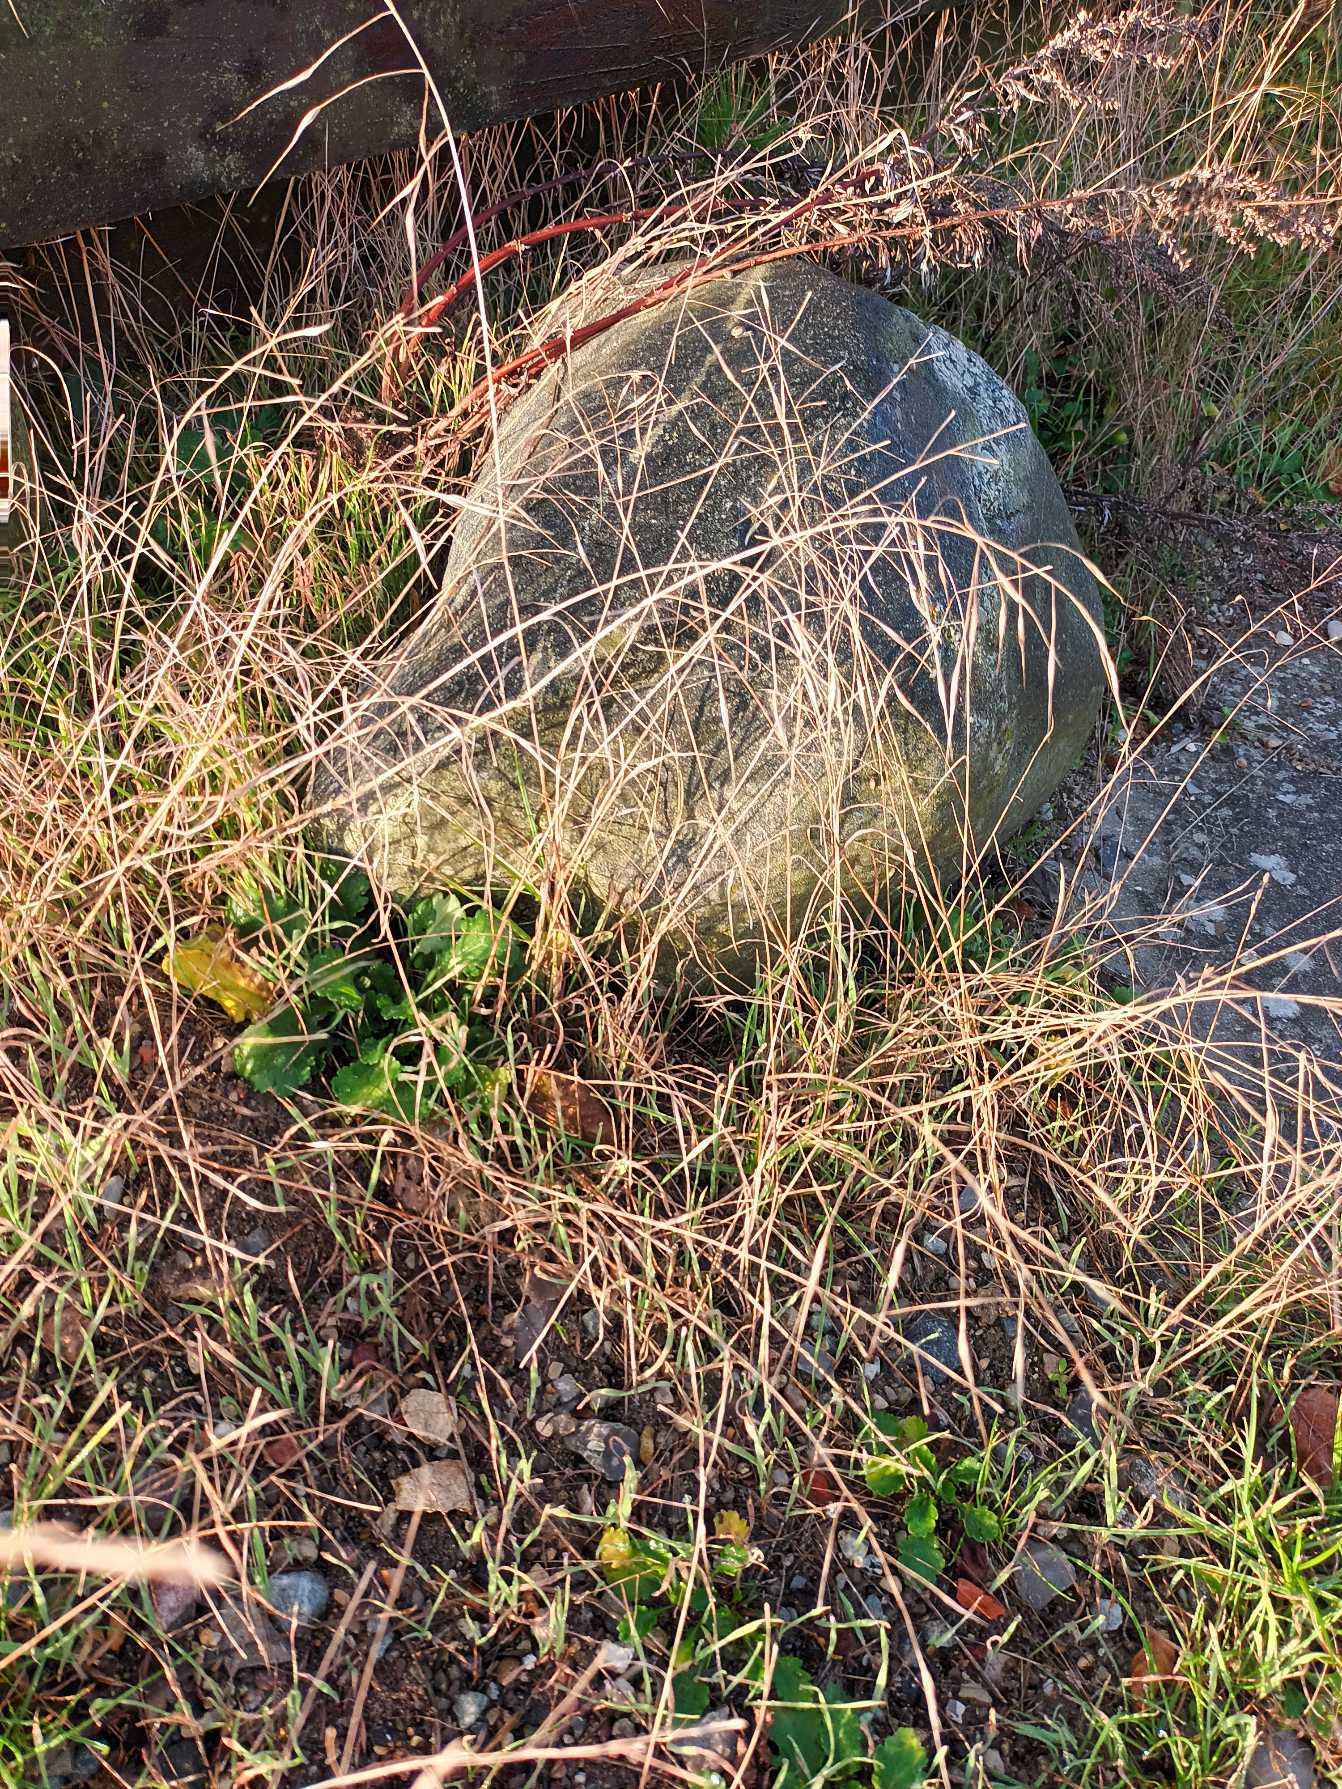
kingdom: Plantae
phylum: Tracheophyta
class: Liliopsida
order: Poales
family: Poaceae
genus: Bromus
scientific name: Bromus sterilis
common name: Gold hejre
